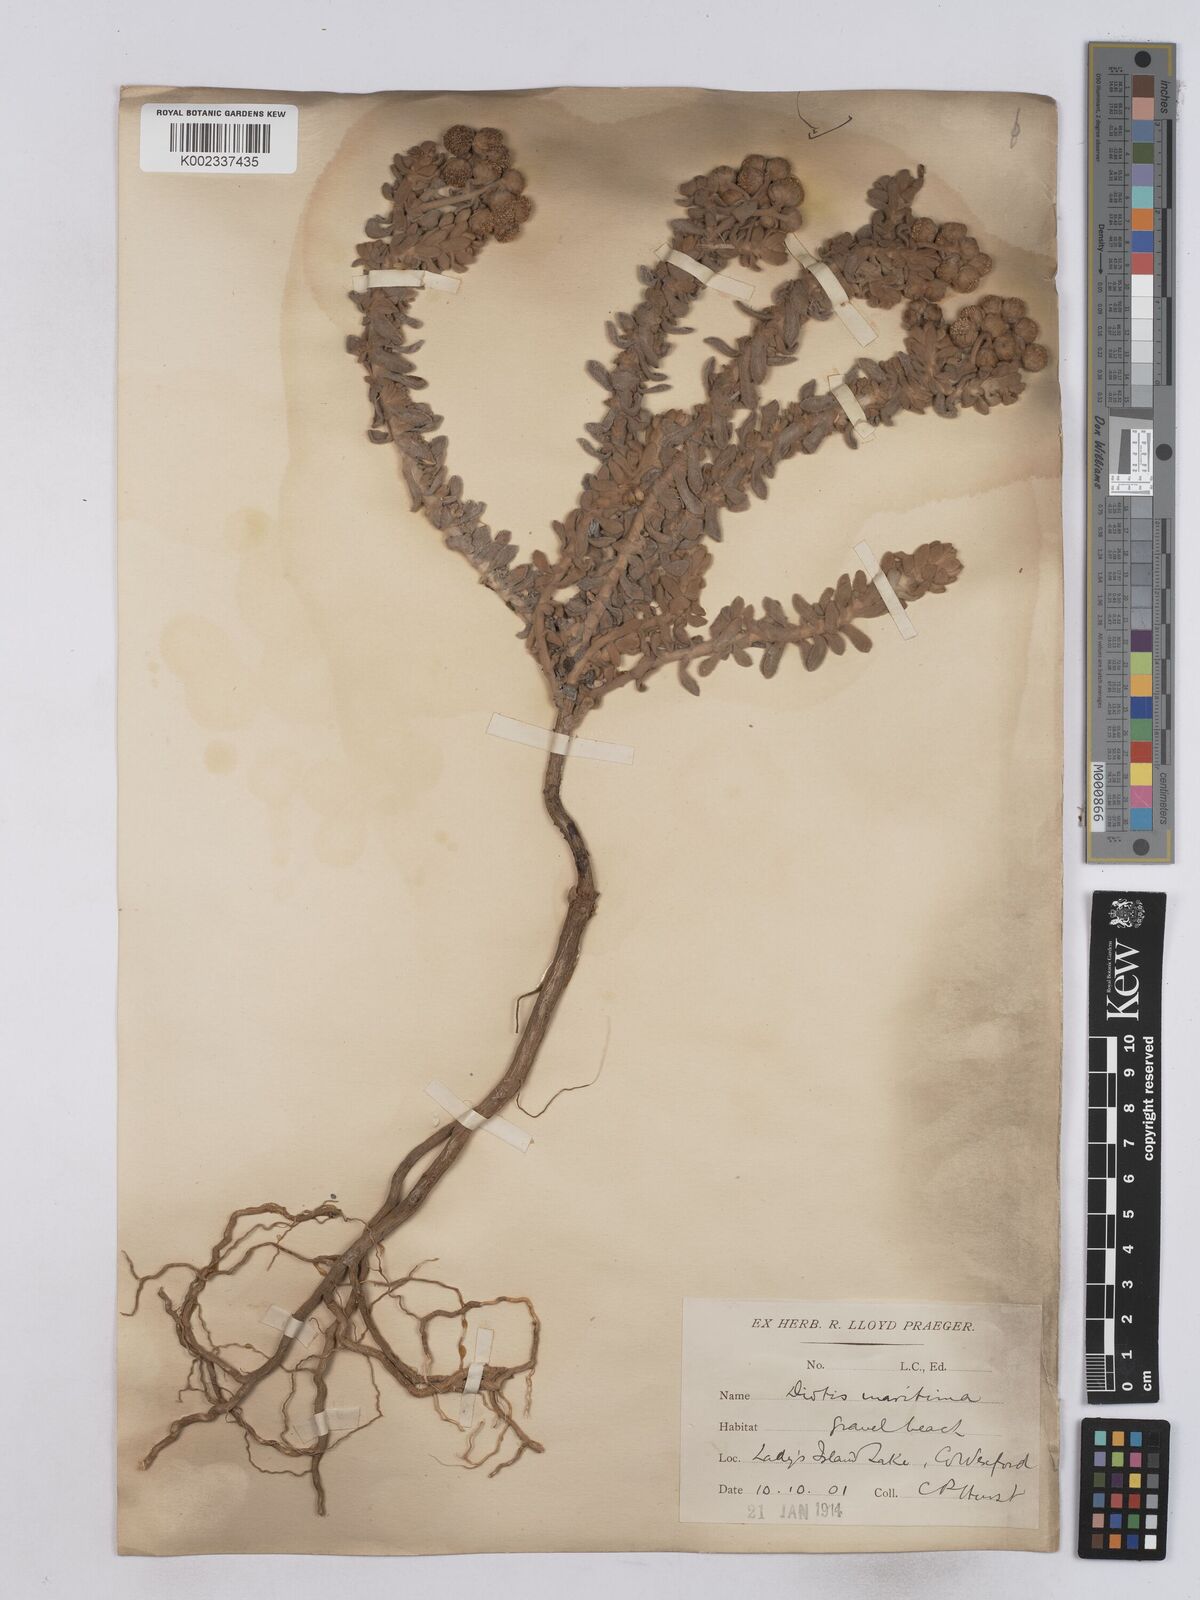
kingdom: Plantae
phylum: Tracheophyta
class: Magnoliopsida
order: Asterales
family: Asteraceae
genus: Achillea
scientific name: Achillea maritima
